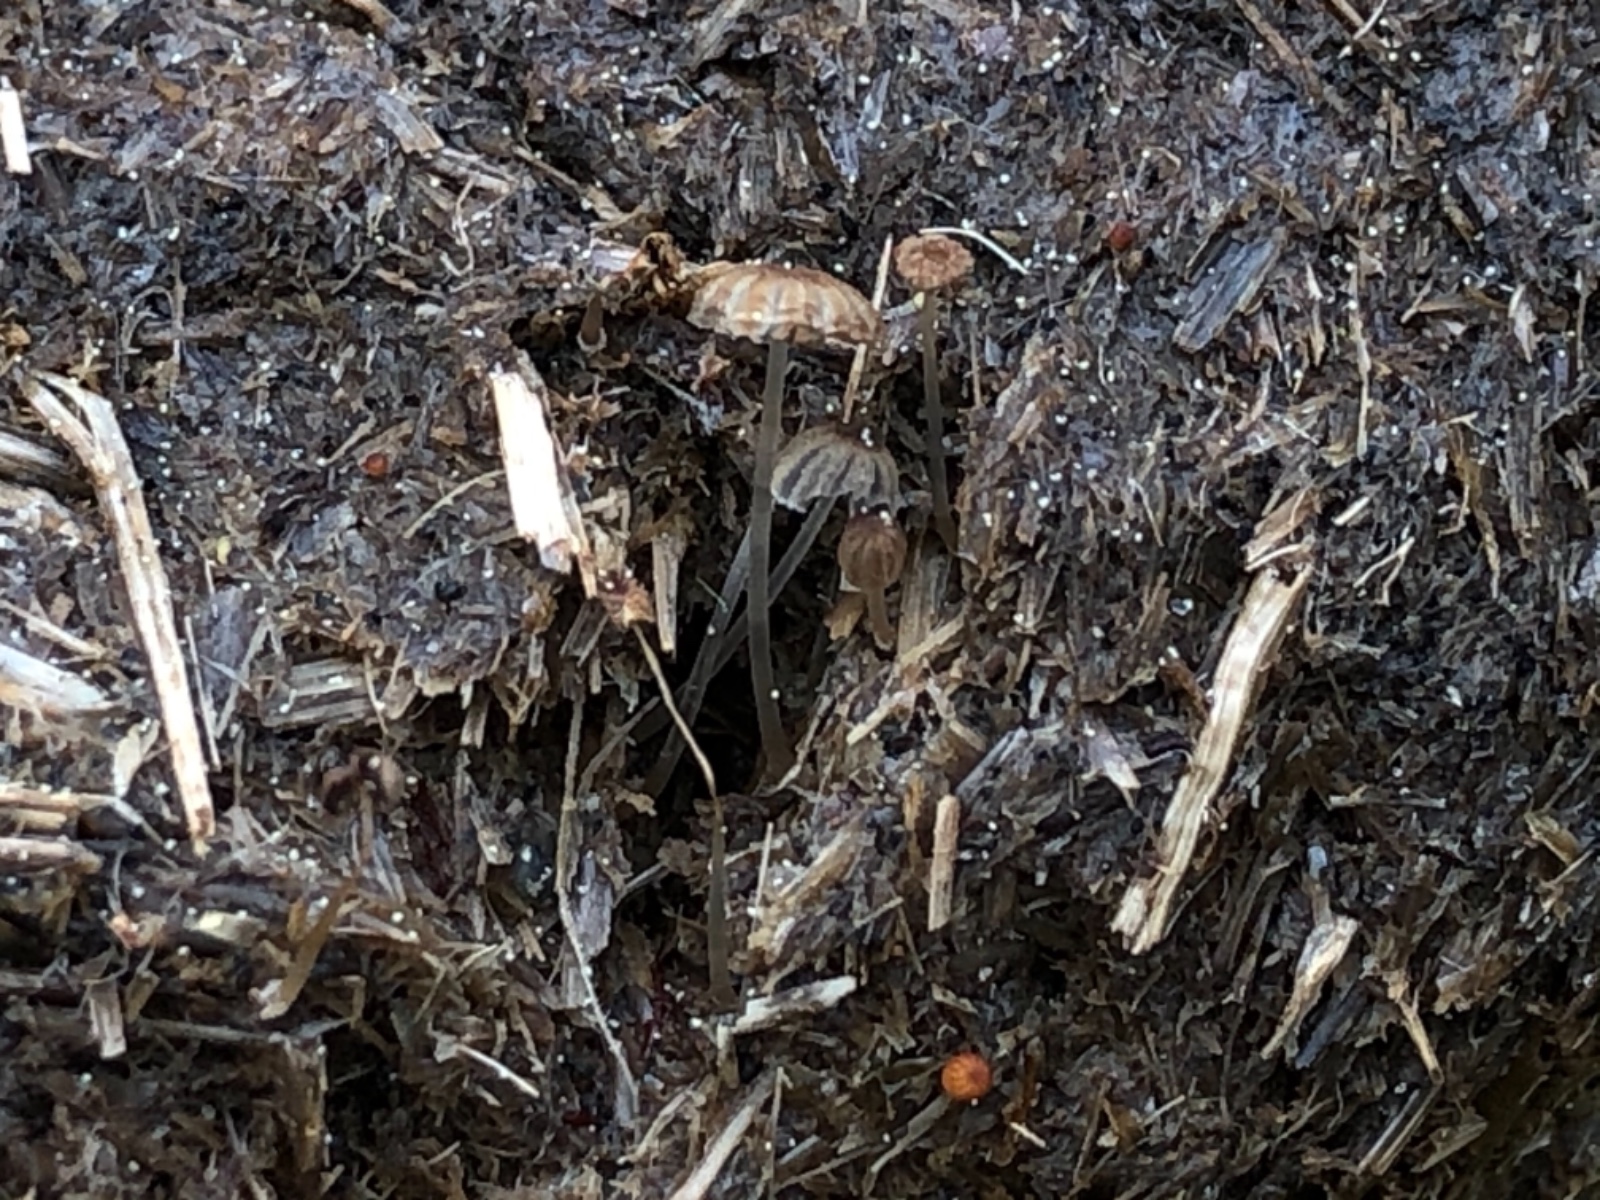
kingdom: Fungi
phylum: Basidiomycota
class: Agaricomycetes
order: Agaricales
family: Psathyrellaceae
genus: Parasola
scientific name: Parasola misera
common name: lillebitte hjulhat
